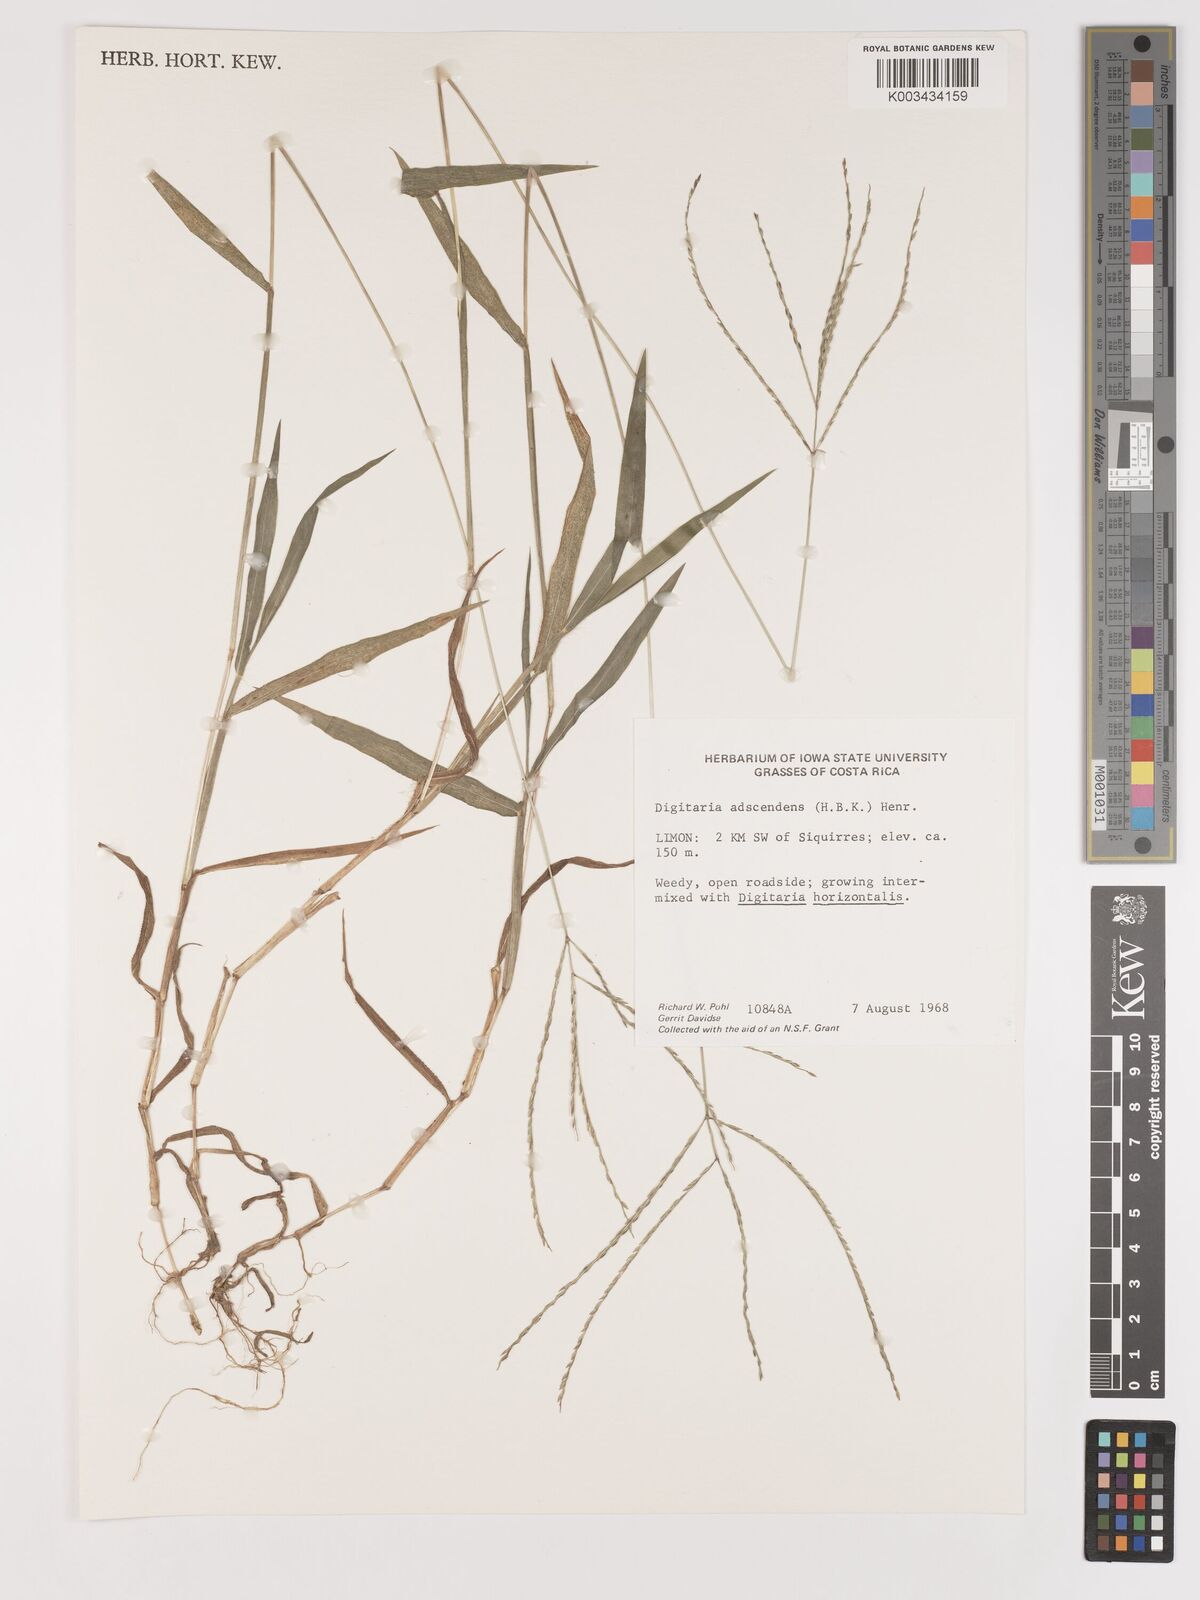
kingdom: Plantae
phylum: Tracheophyta
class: Liliopsida
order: Poales
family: Poaceae
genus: Digitaria
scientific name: Digitaria ciliaris
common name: Tropical finger-grass
